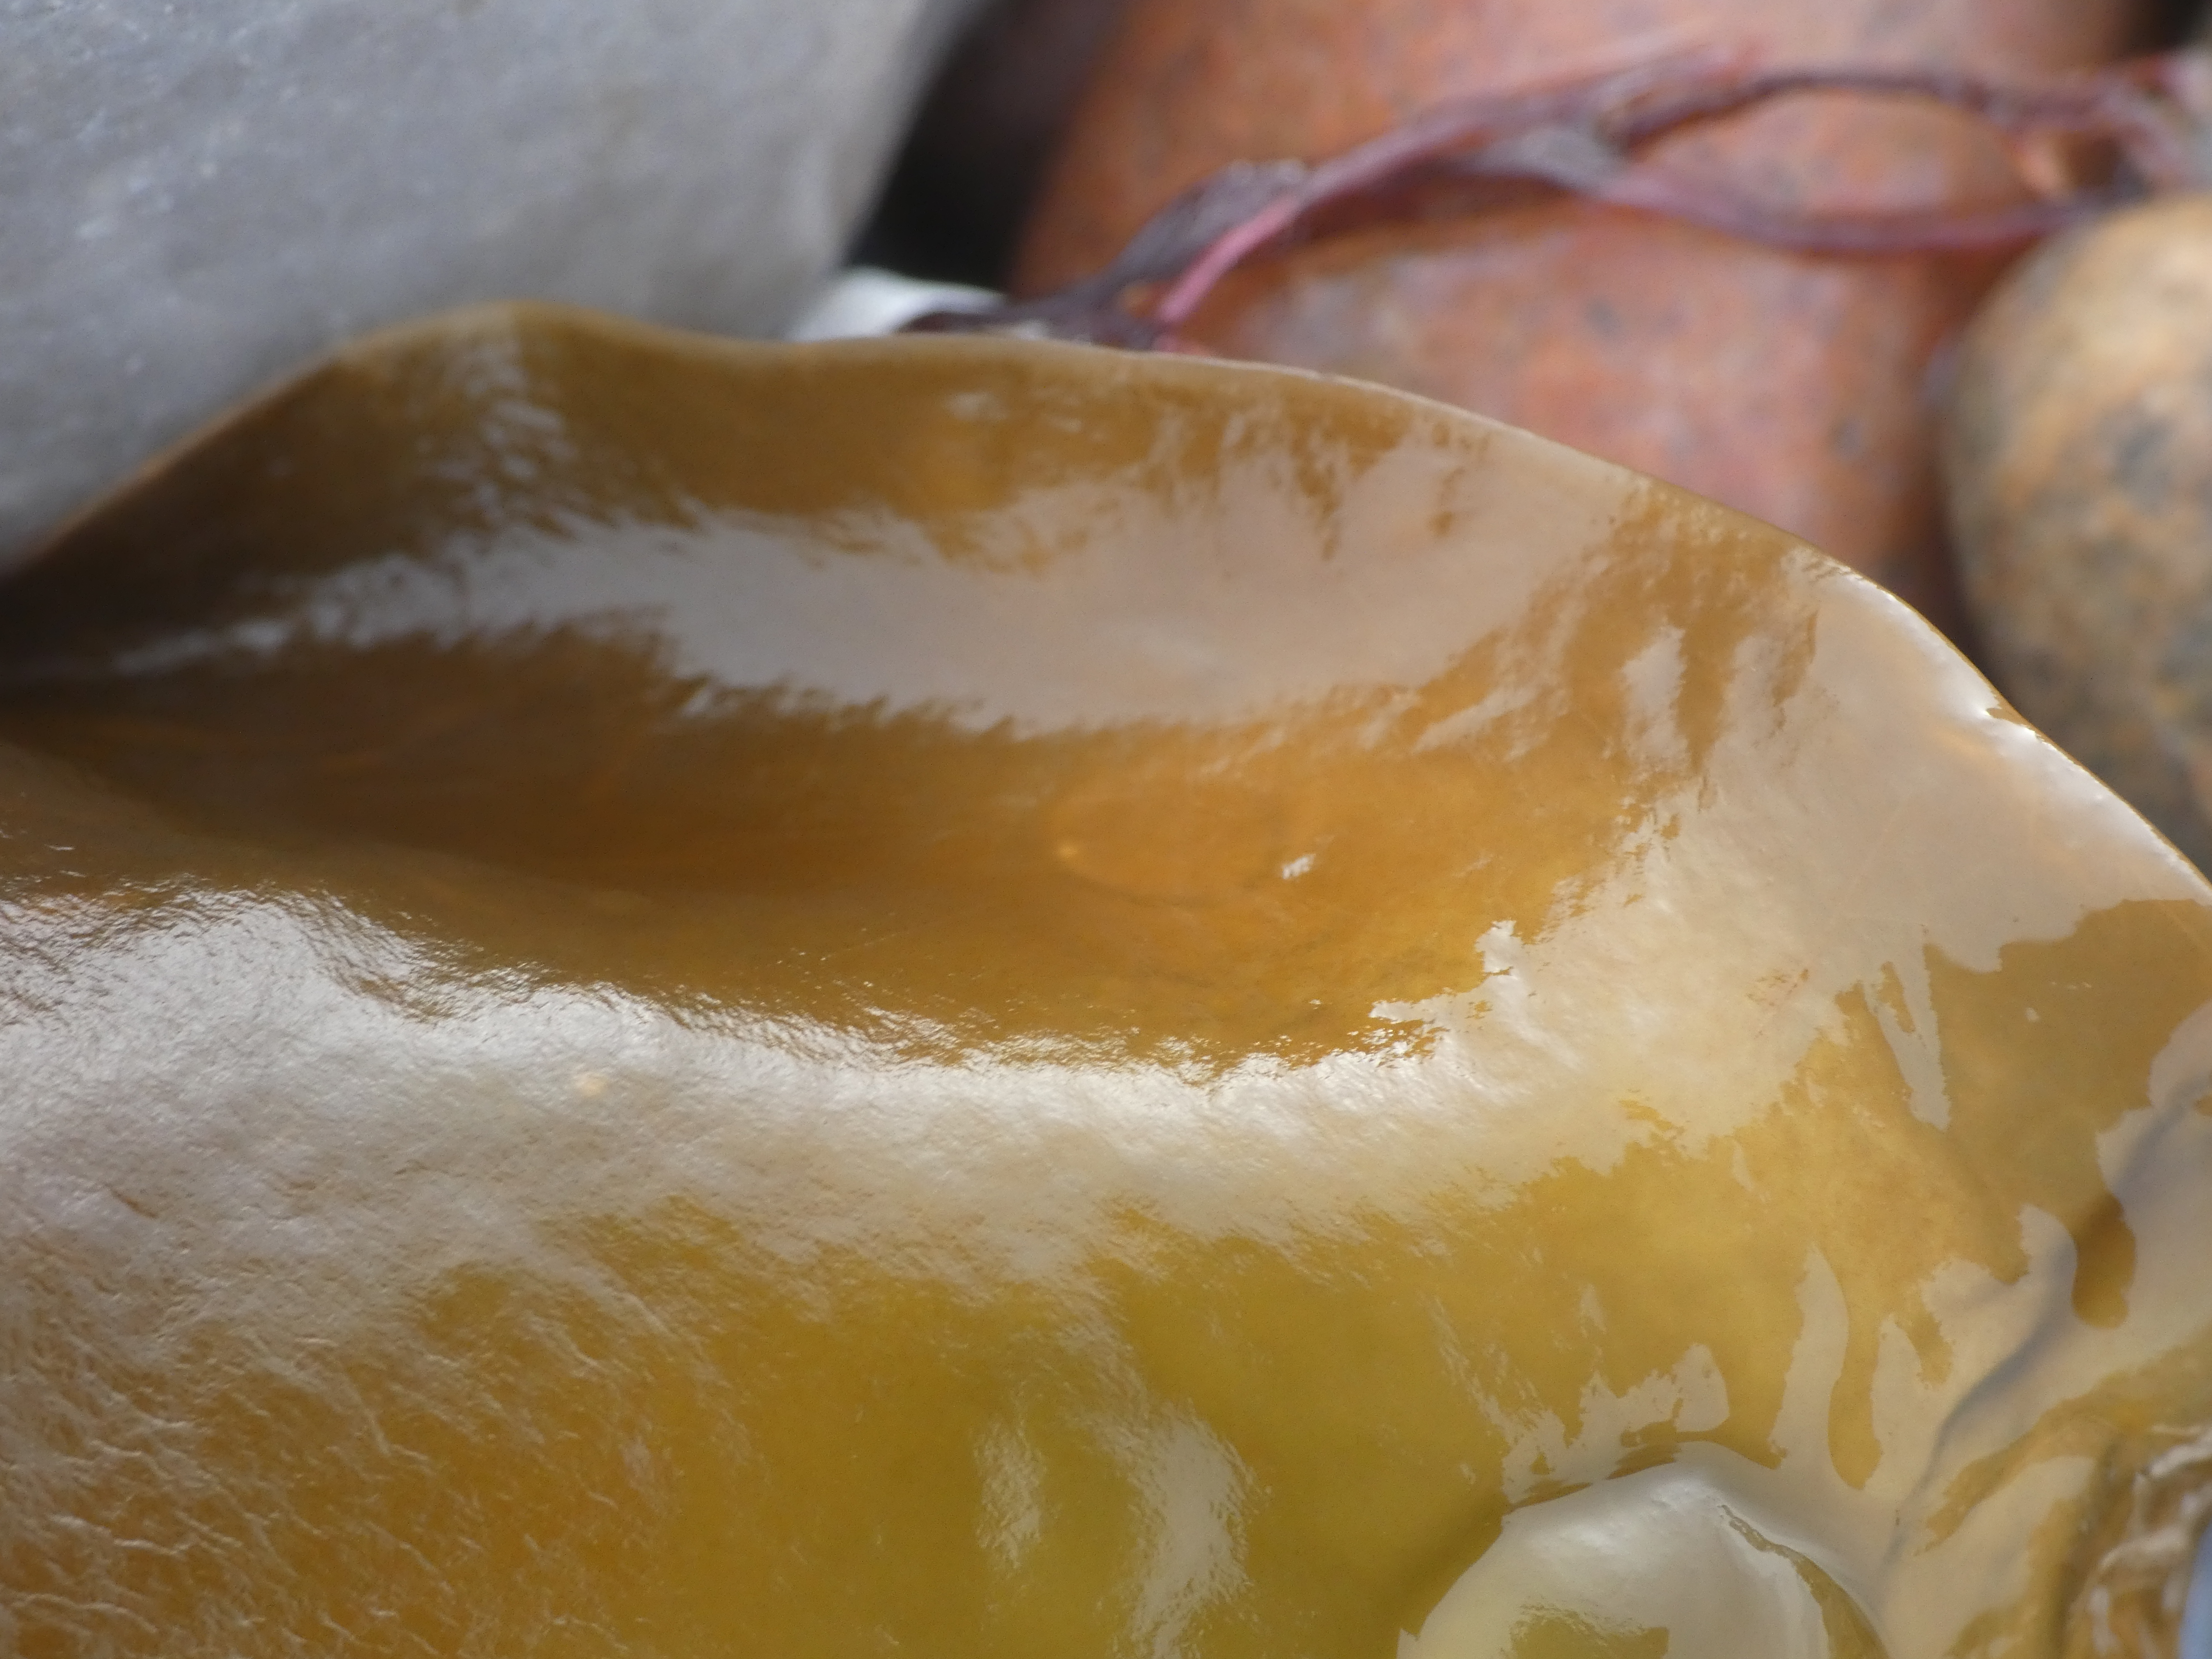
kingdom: Chromista
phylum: Ochrophyta
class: Phaeophyceae
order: Laminariales
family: Laminariaceae
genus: Saccharina
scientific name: Saccharina latissima
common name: Sukkertang
